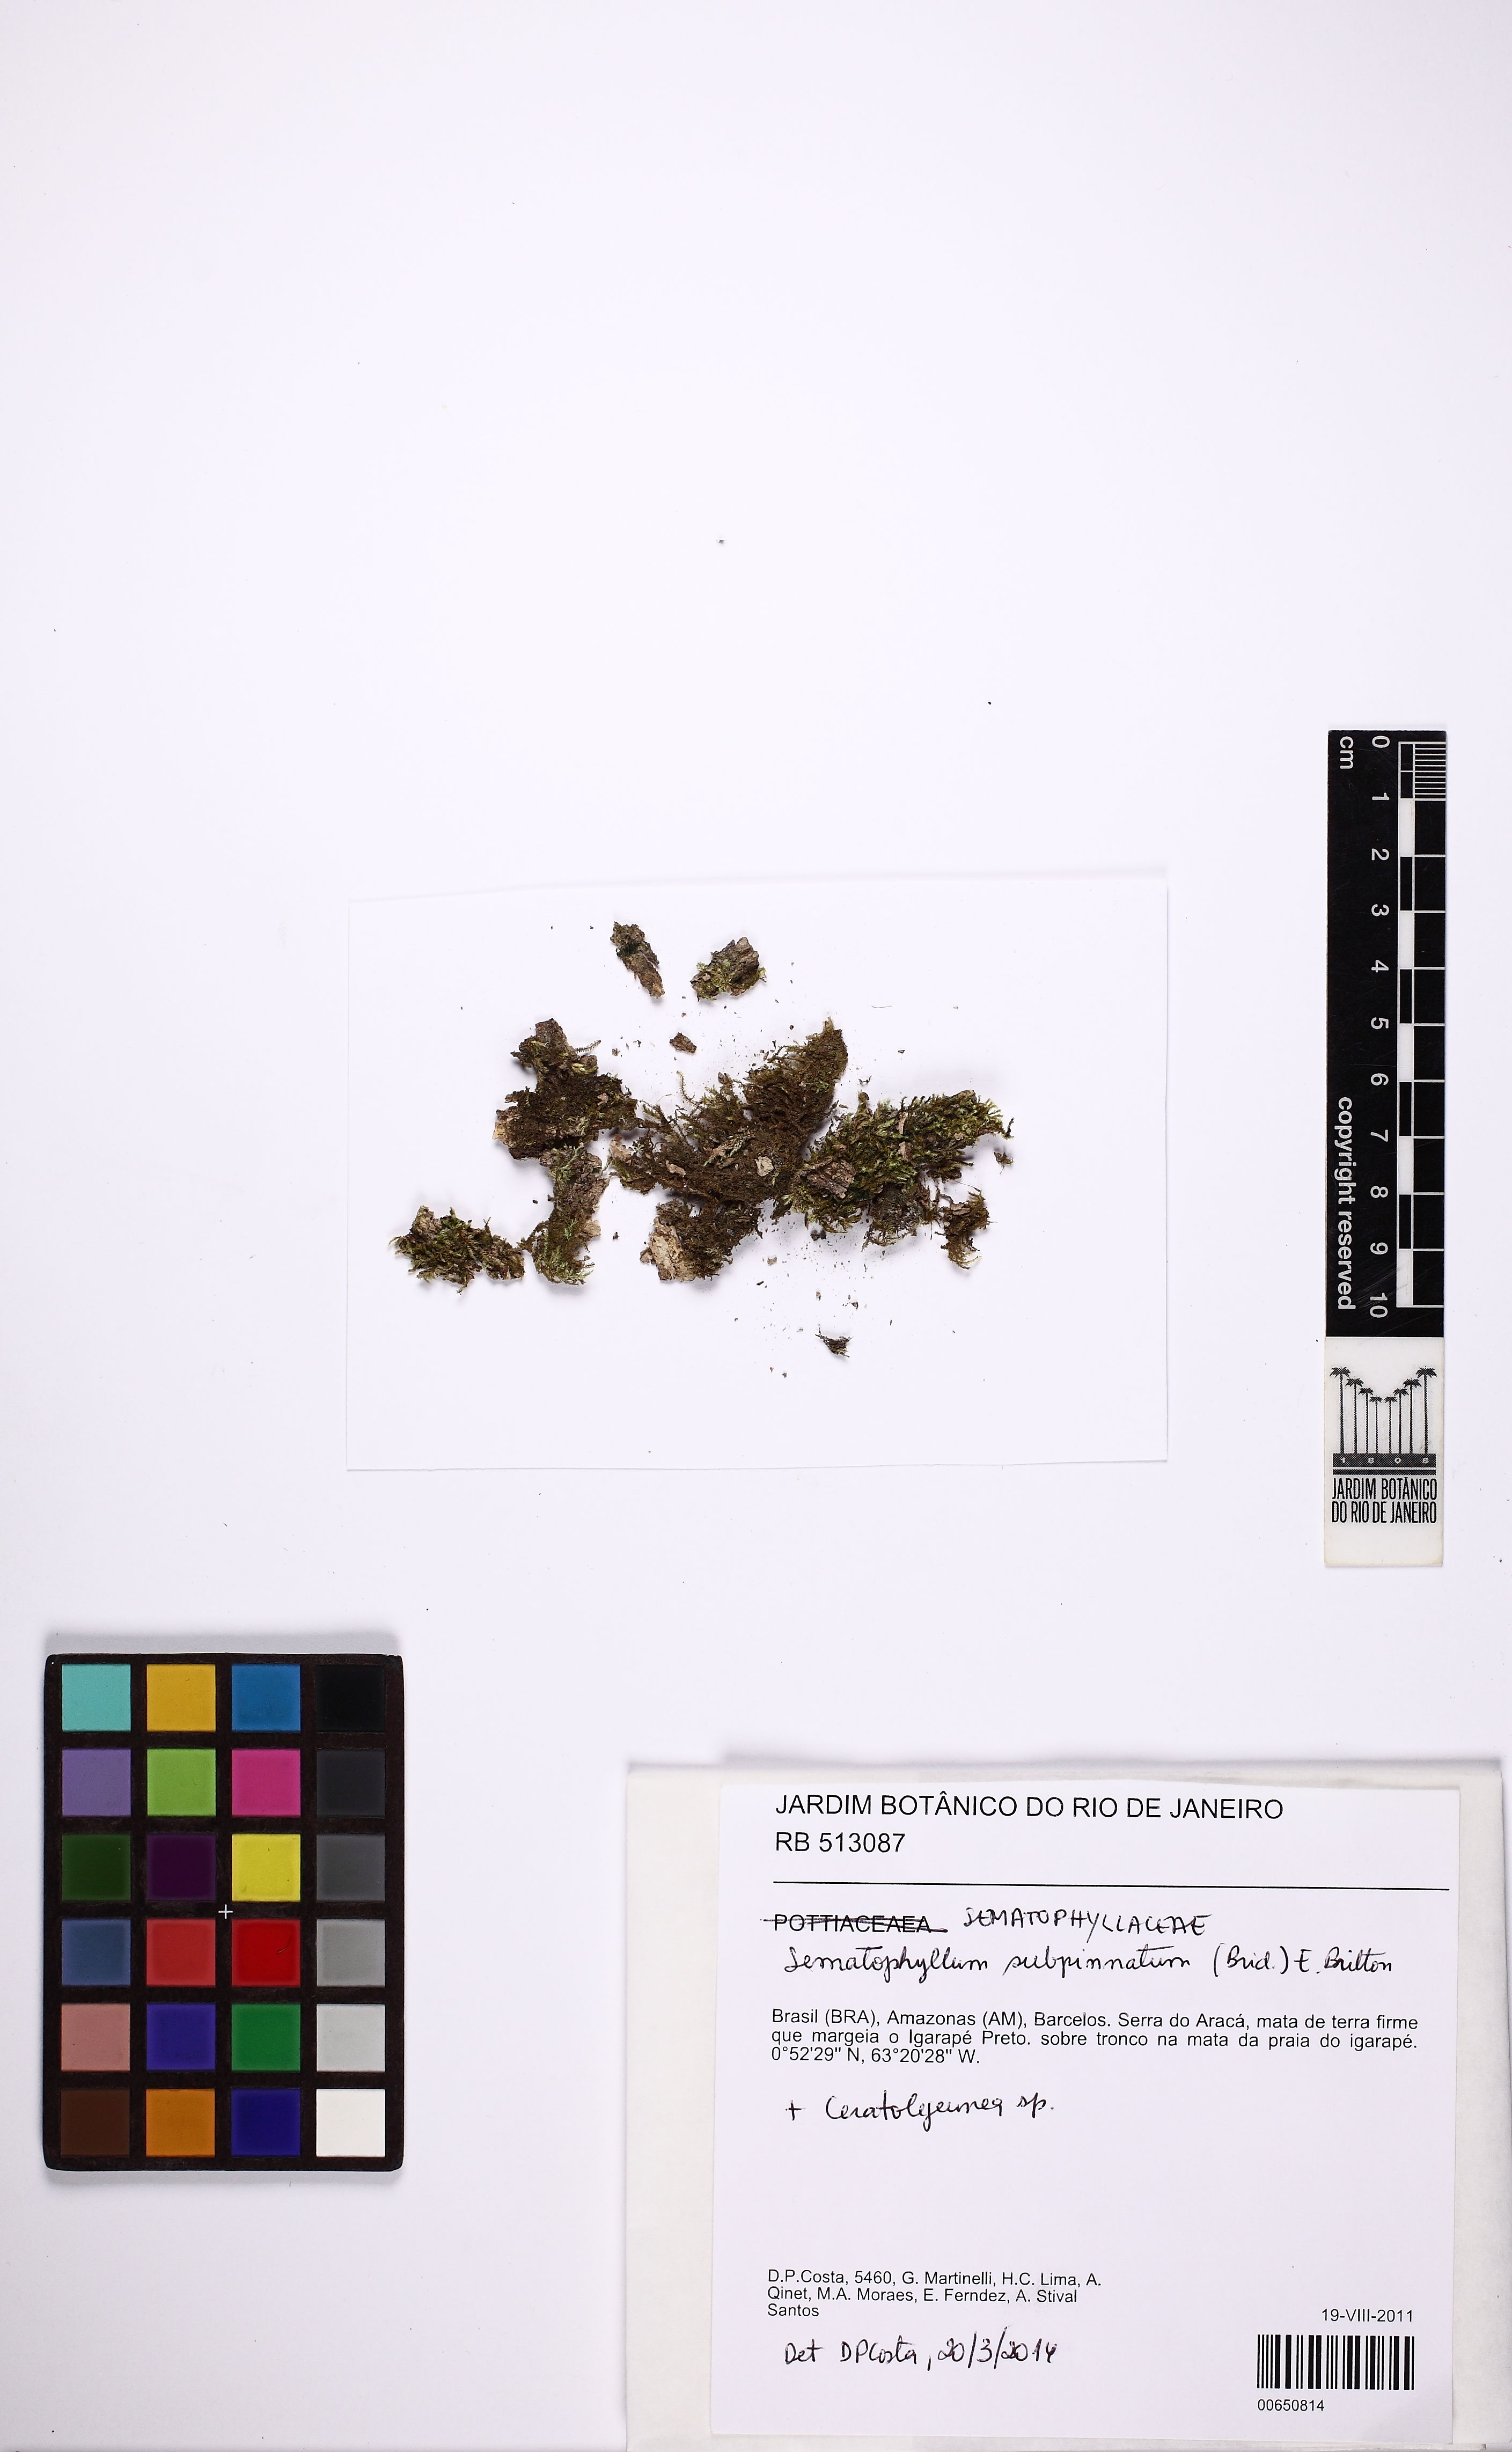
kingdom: Plantae
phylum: Bryophyta
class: Bryopsida
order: Hypnales
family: Sematophyllaceae
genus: Brittonodoxa
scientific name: Brittonodoxa subpinnata
